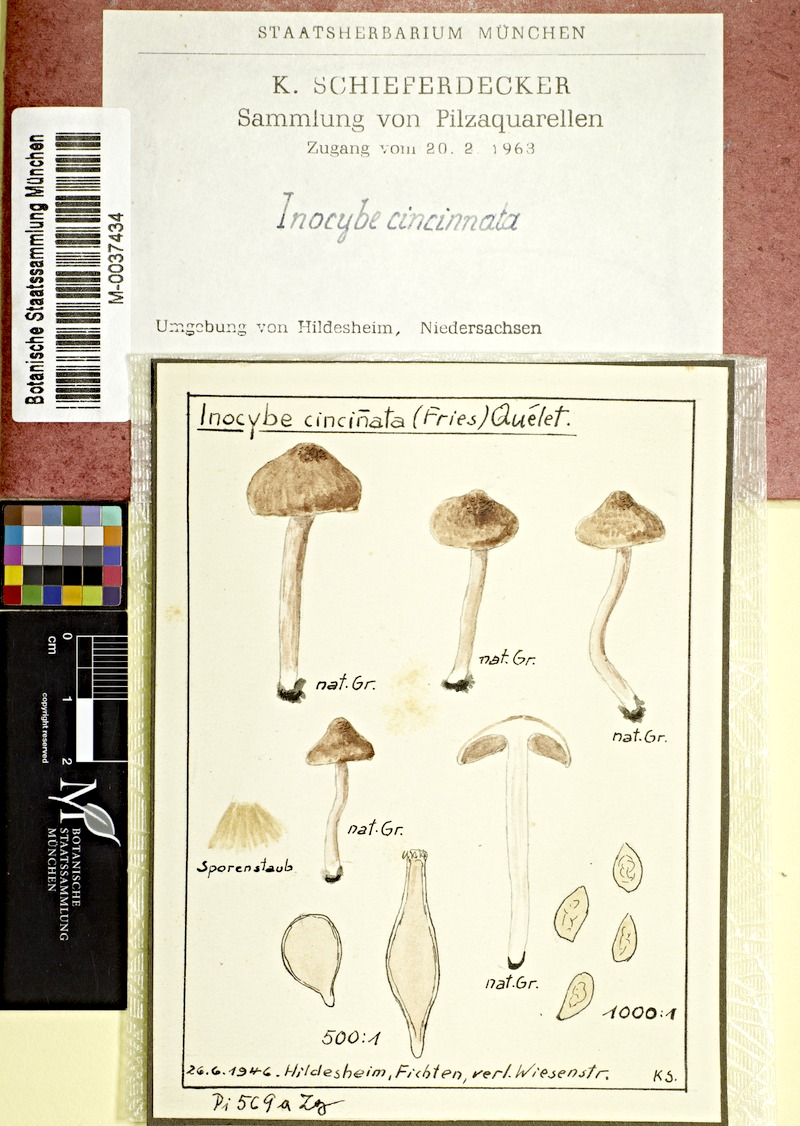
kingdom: Fungi
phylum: Basidiomycota
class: Agaricomycetes
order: Agaricales
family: Inocybaceae
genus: Inocybe
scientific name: Inocybe cincinnata
